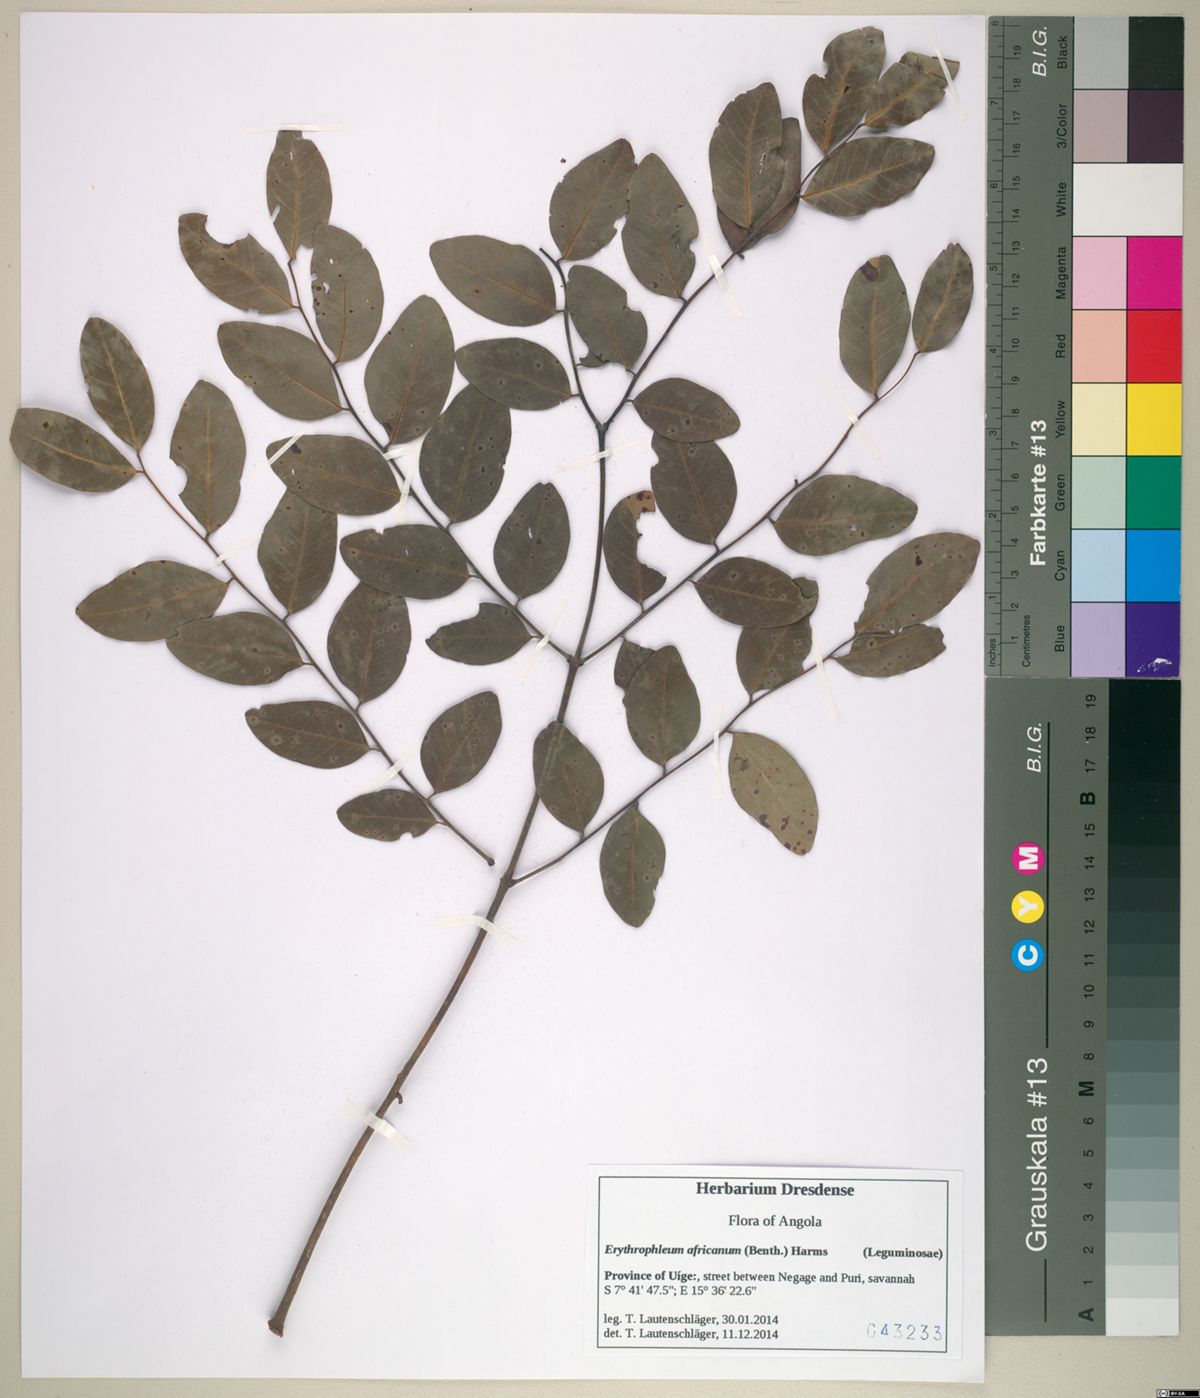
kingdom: Plantae
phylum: Tracheophyta
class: Magnoliopsida
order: Fabales
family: Fabaceae
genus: Erythrophleum
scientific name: Erythrophleum africanum
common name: African blackwood
